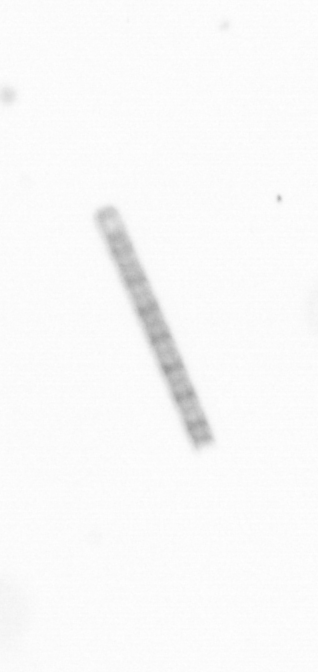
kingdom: Chromista
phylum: Ochrophyta
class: Bacillariophyceae
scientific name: Bacillariophyceae
